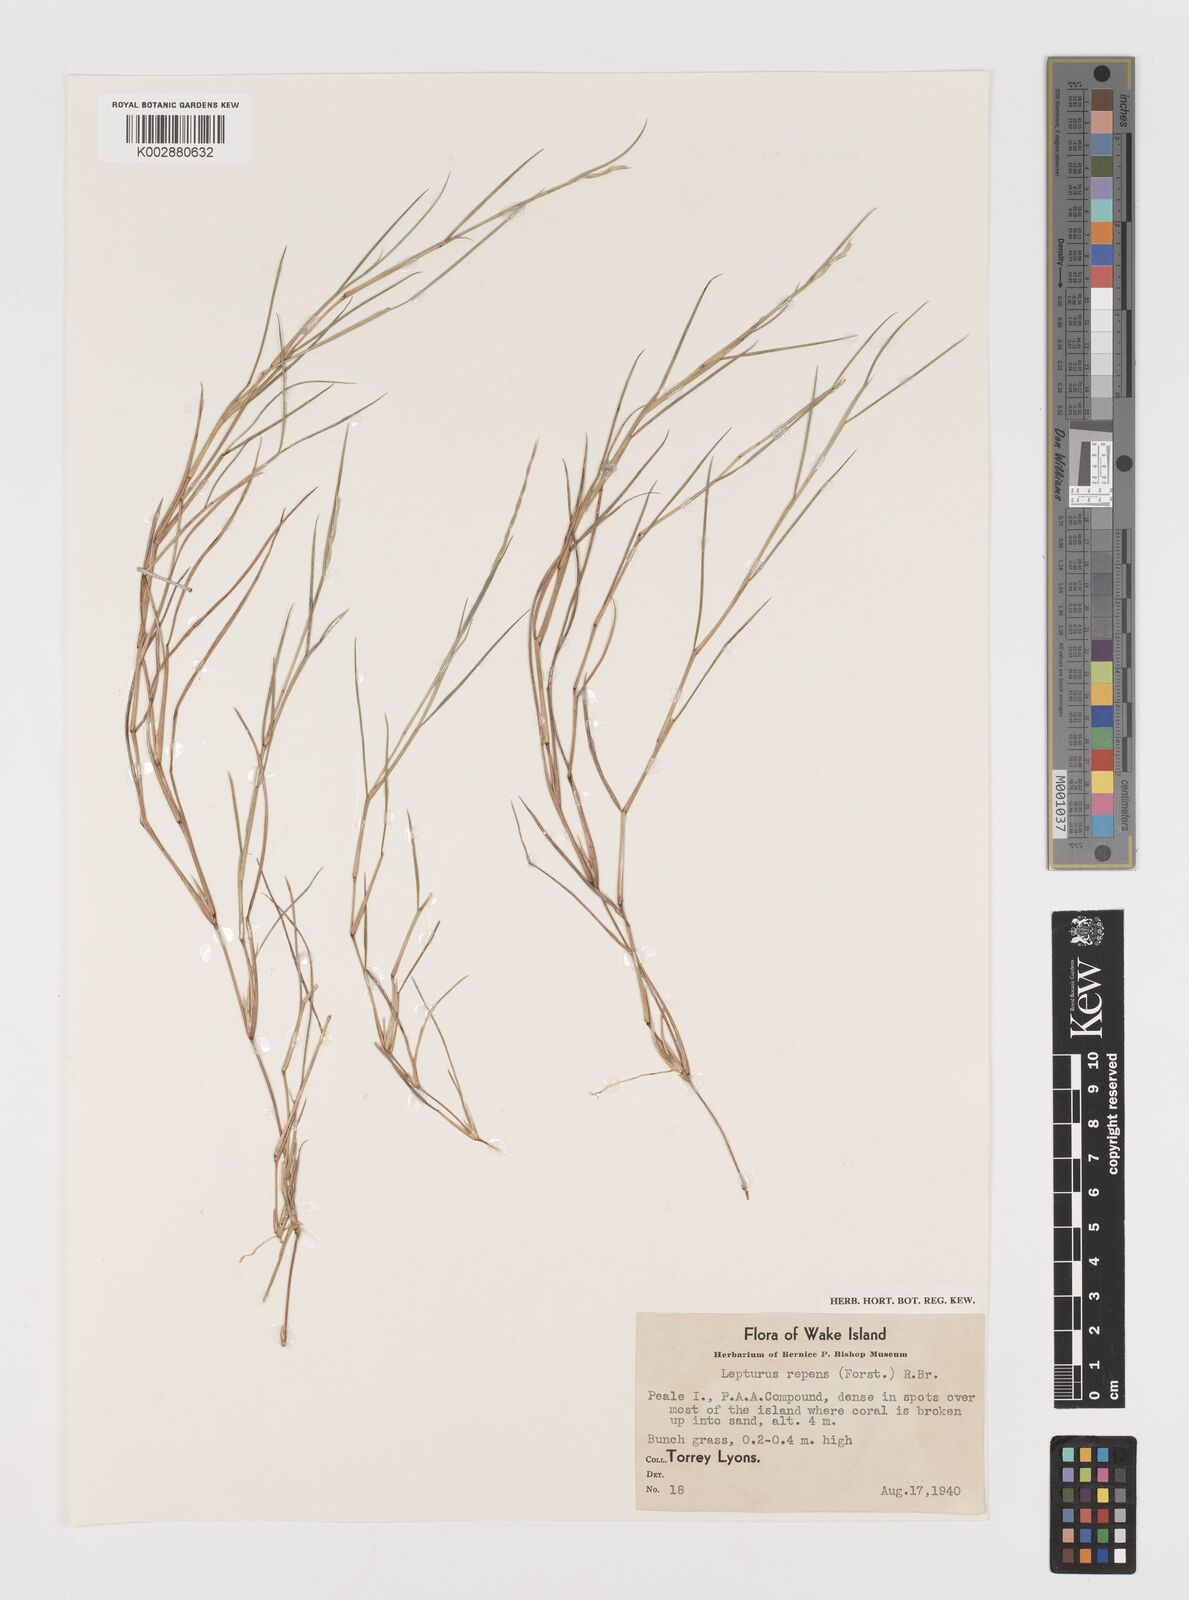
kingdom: Plantae
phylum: Tracheophyta
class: Liliopsida
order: Poales
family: Poaceae
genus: Lepturus
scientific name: Lepturus repens
